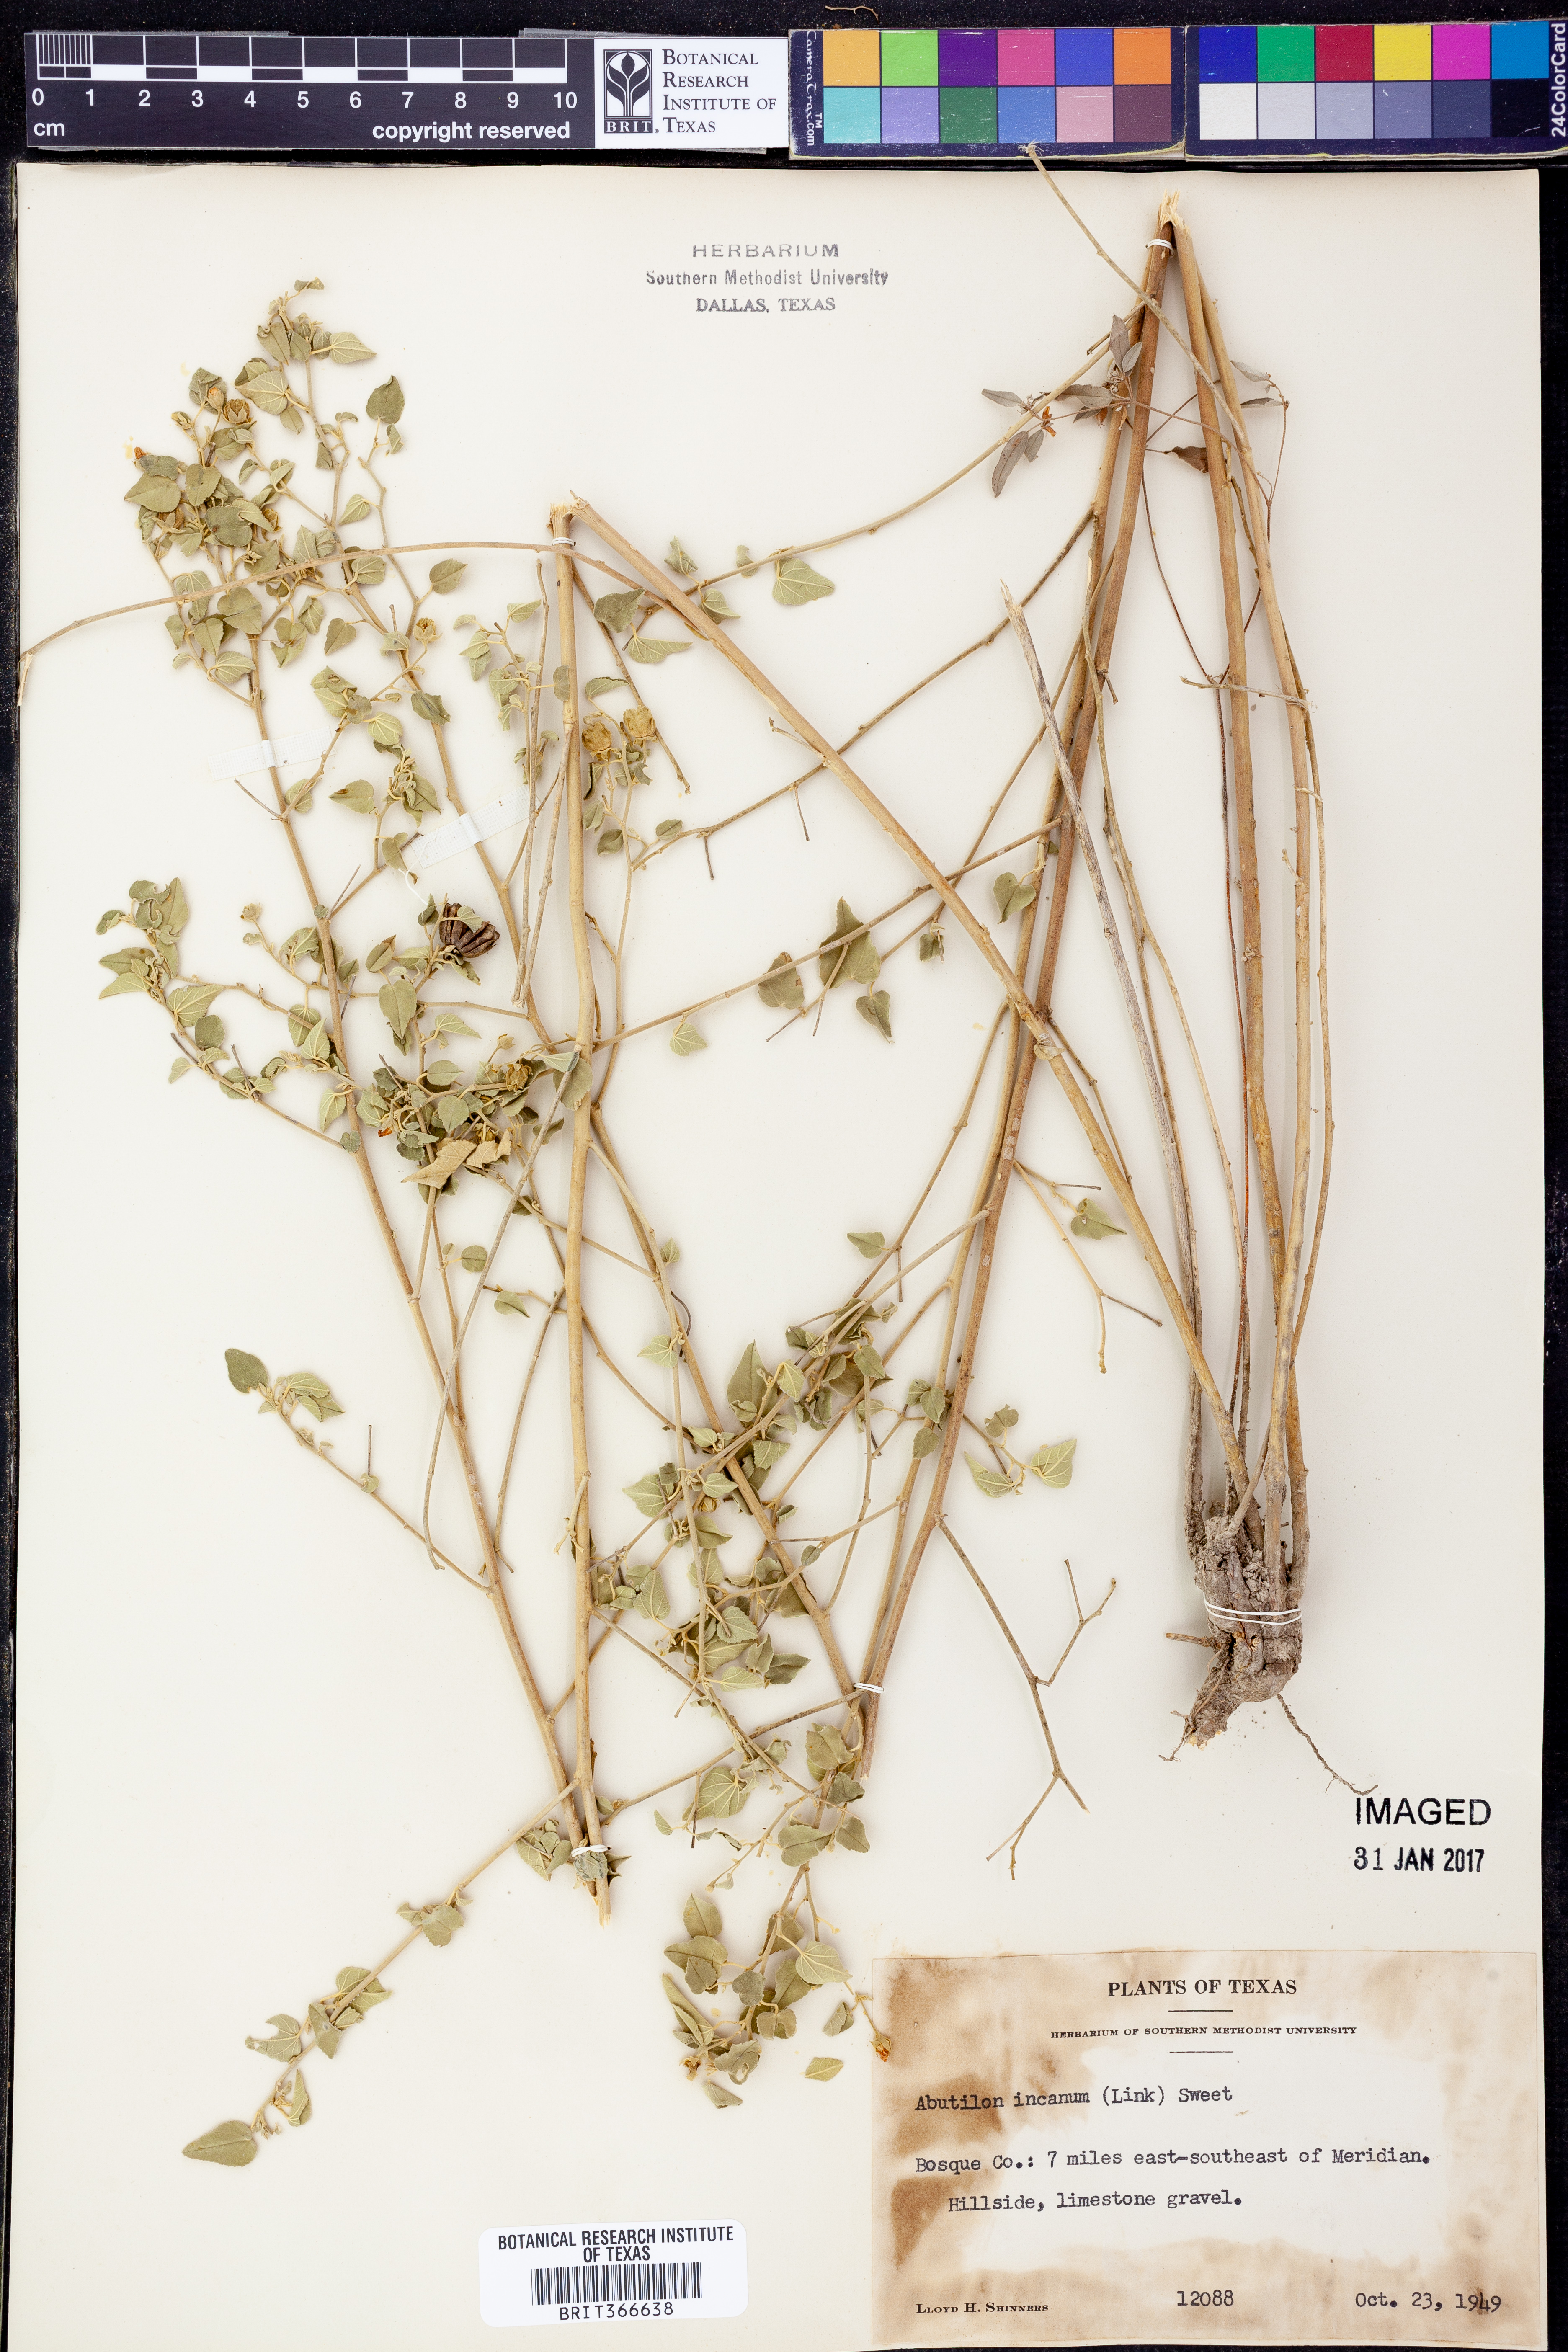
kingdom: Plantae
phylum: Tracheophyta
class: Magnoliopsida
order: Malvales
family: Malvaceae
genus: Abutilon
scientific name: Abutilon incanum
